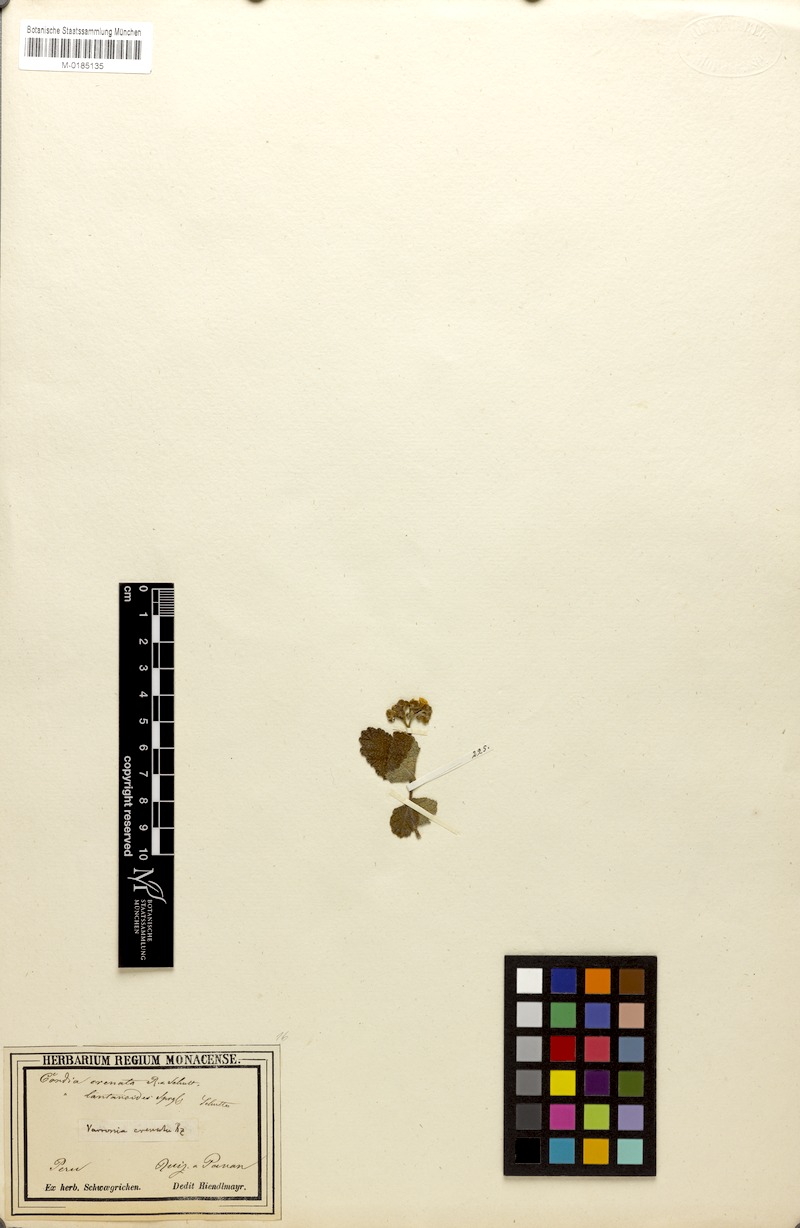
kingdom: Plantae
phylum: Tracheophyta
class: Magnoliopsida
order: Boraginales
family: Cordiaceae
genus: Varronia
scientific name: Varronia crenata
